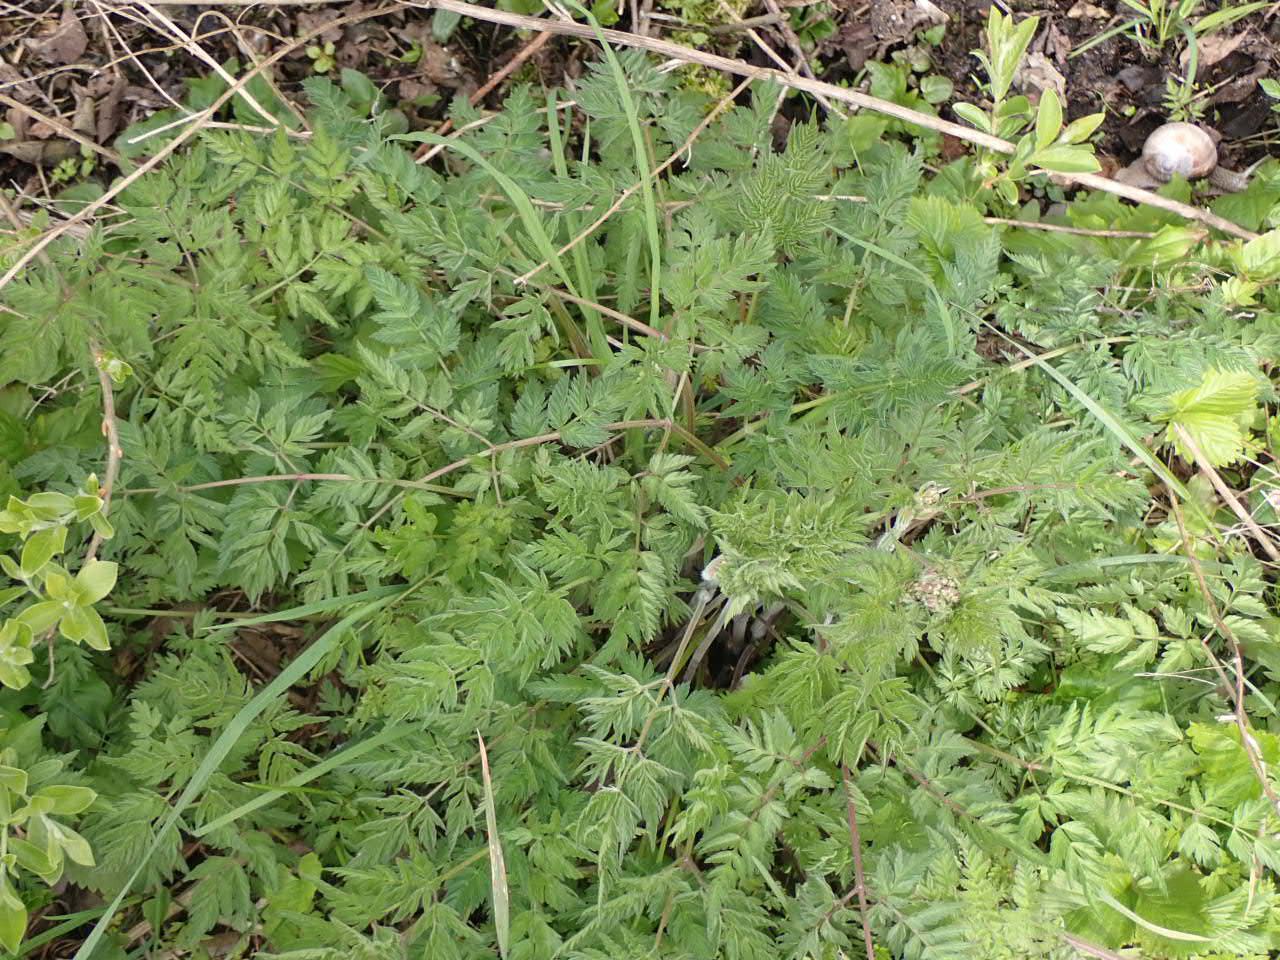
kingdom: Plantae
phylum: Tracheophyta
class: Magnoliopsida
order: Apiales
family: Apiaceae
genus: Anthriscus
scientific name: Anthriscus sylvestris
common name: Vild kørvel
